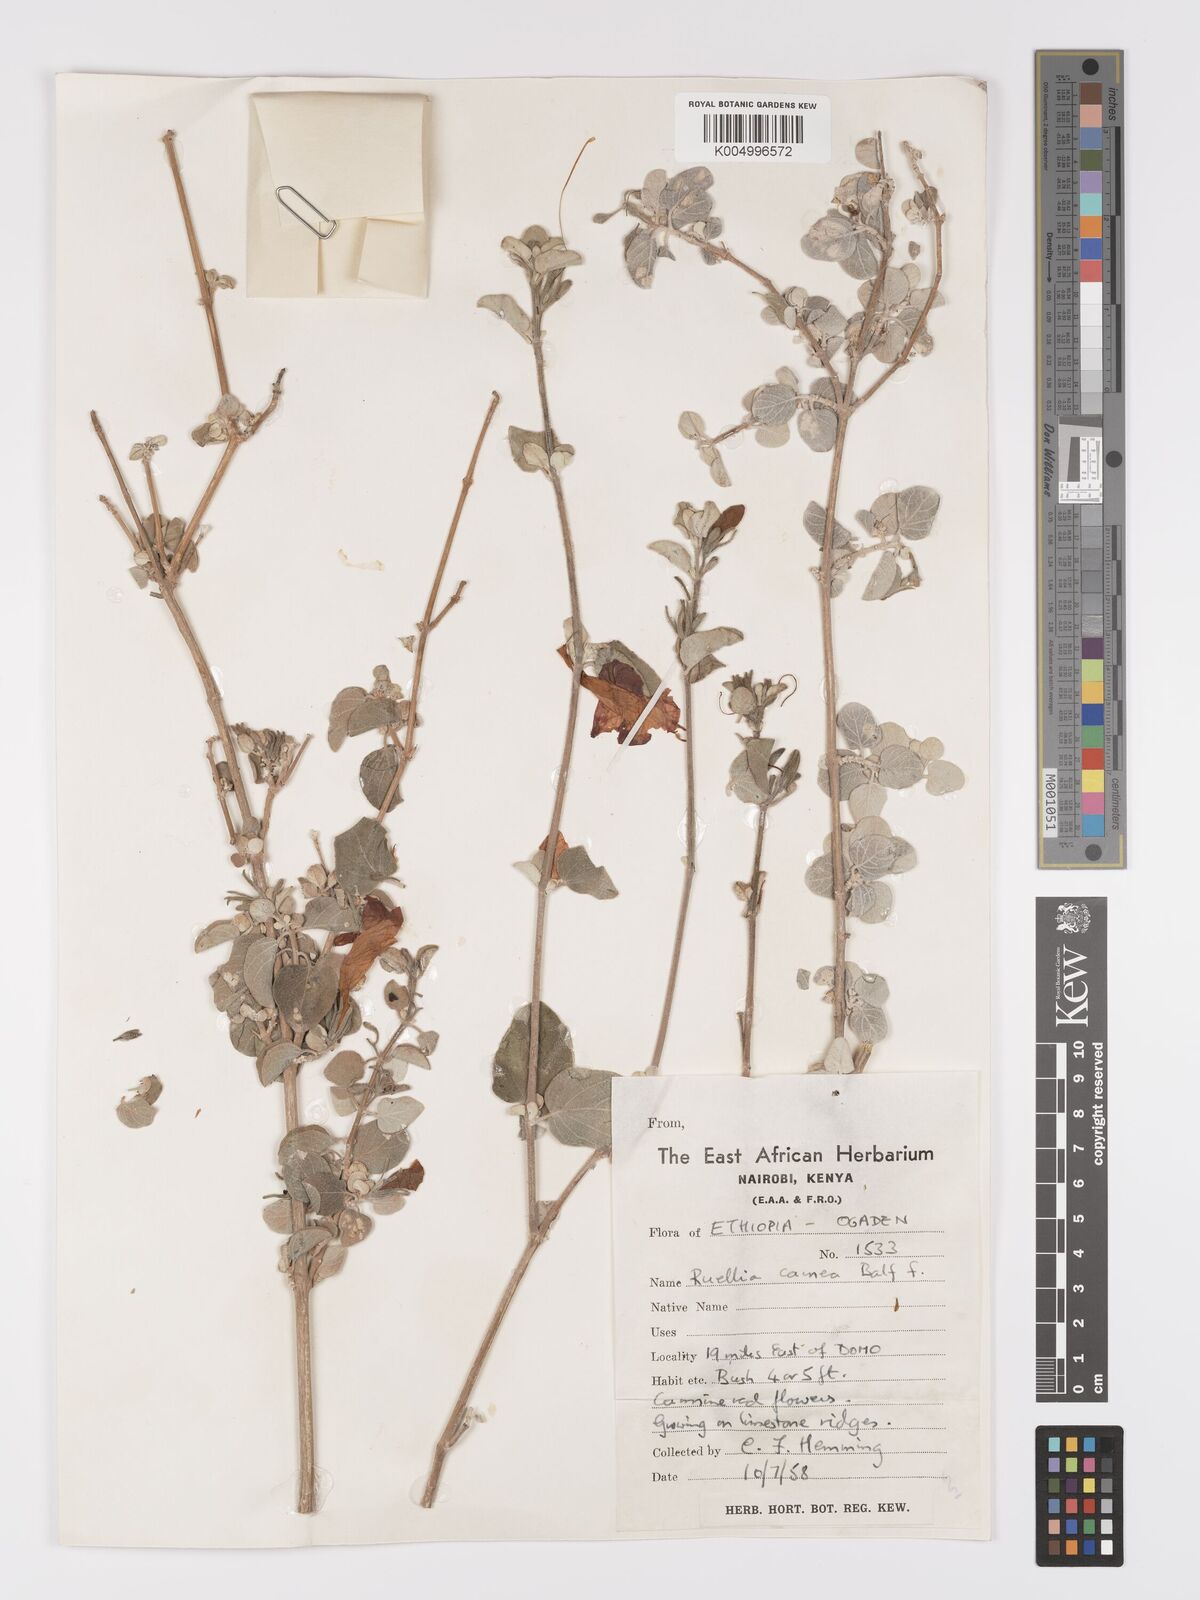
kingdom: Plantae
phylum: Tracheophyta
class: Magnoliopsida
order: Lamiales
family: Acanthaceae
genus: Ruellia
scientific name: Ruellia carnea
